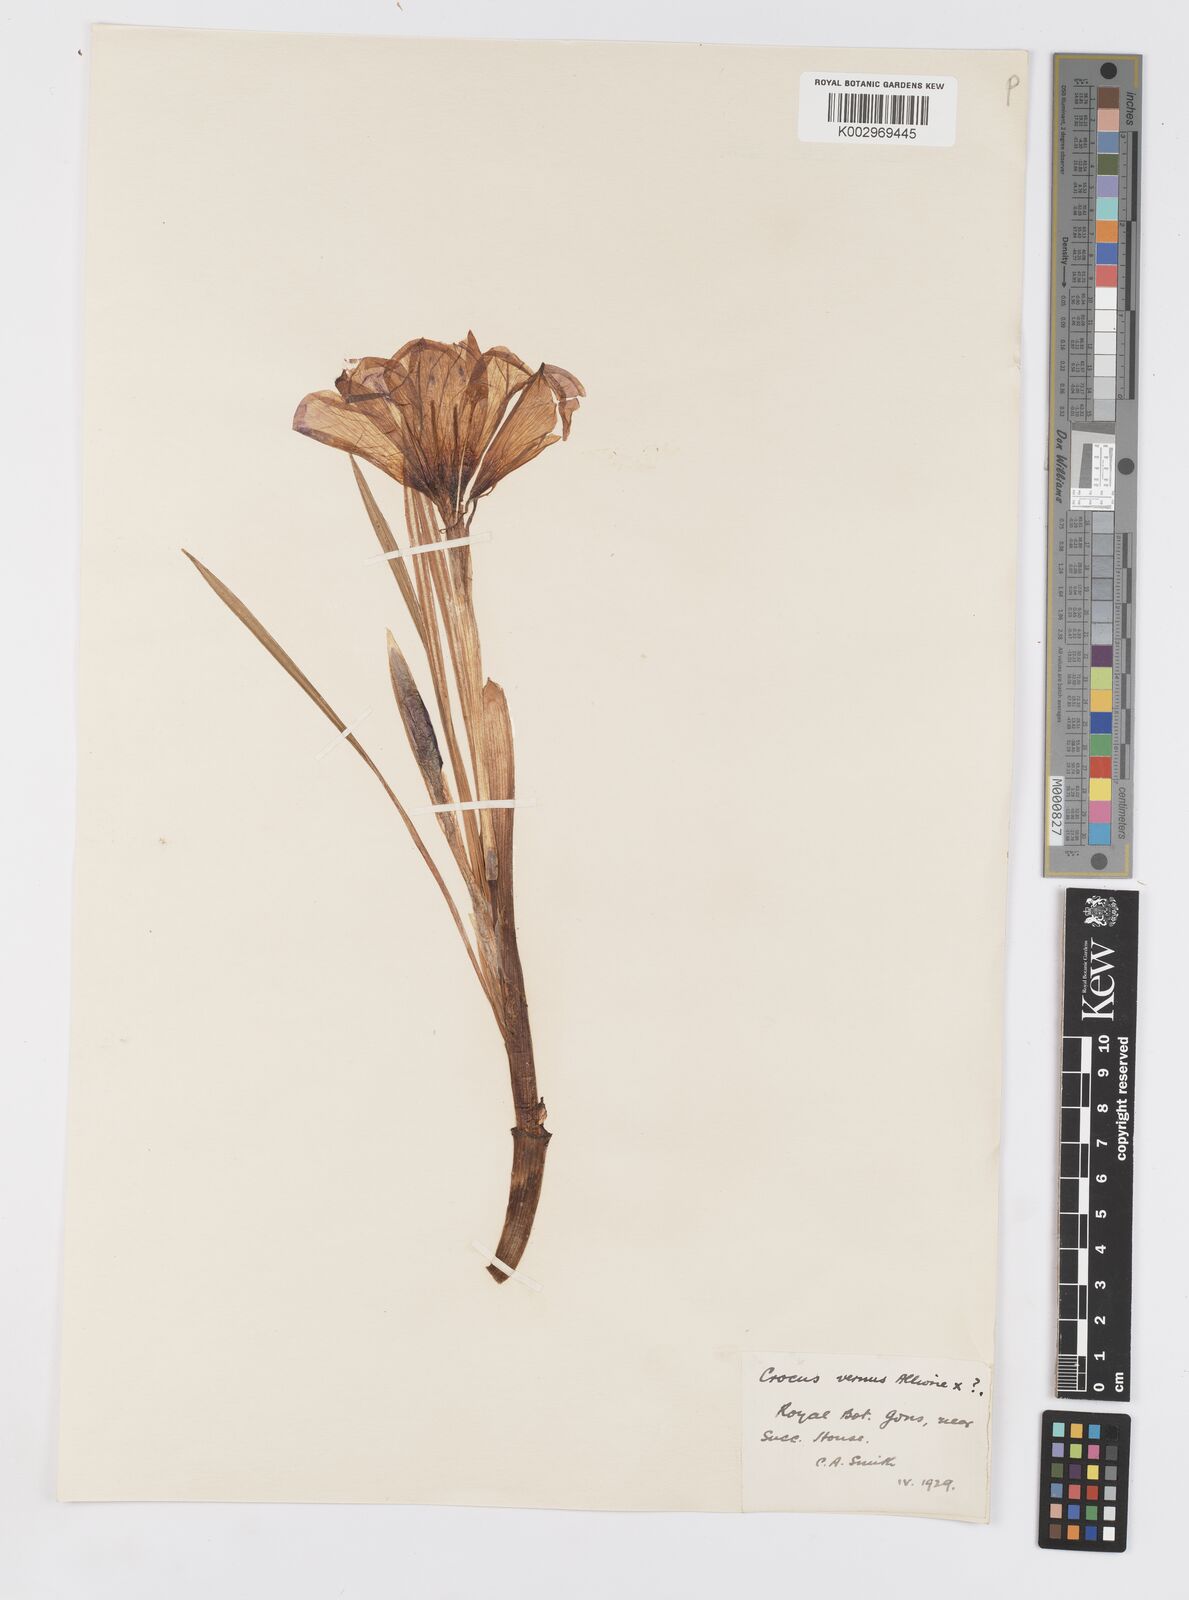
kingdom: Plantae
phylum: Tracheophyta
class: Liliopsida
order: Asparagales
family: Iridaceae
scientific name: Iridaceae
